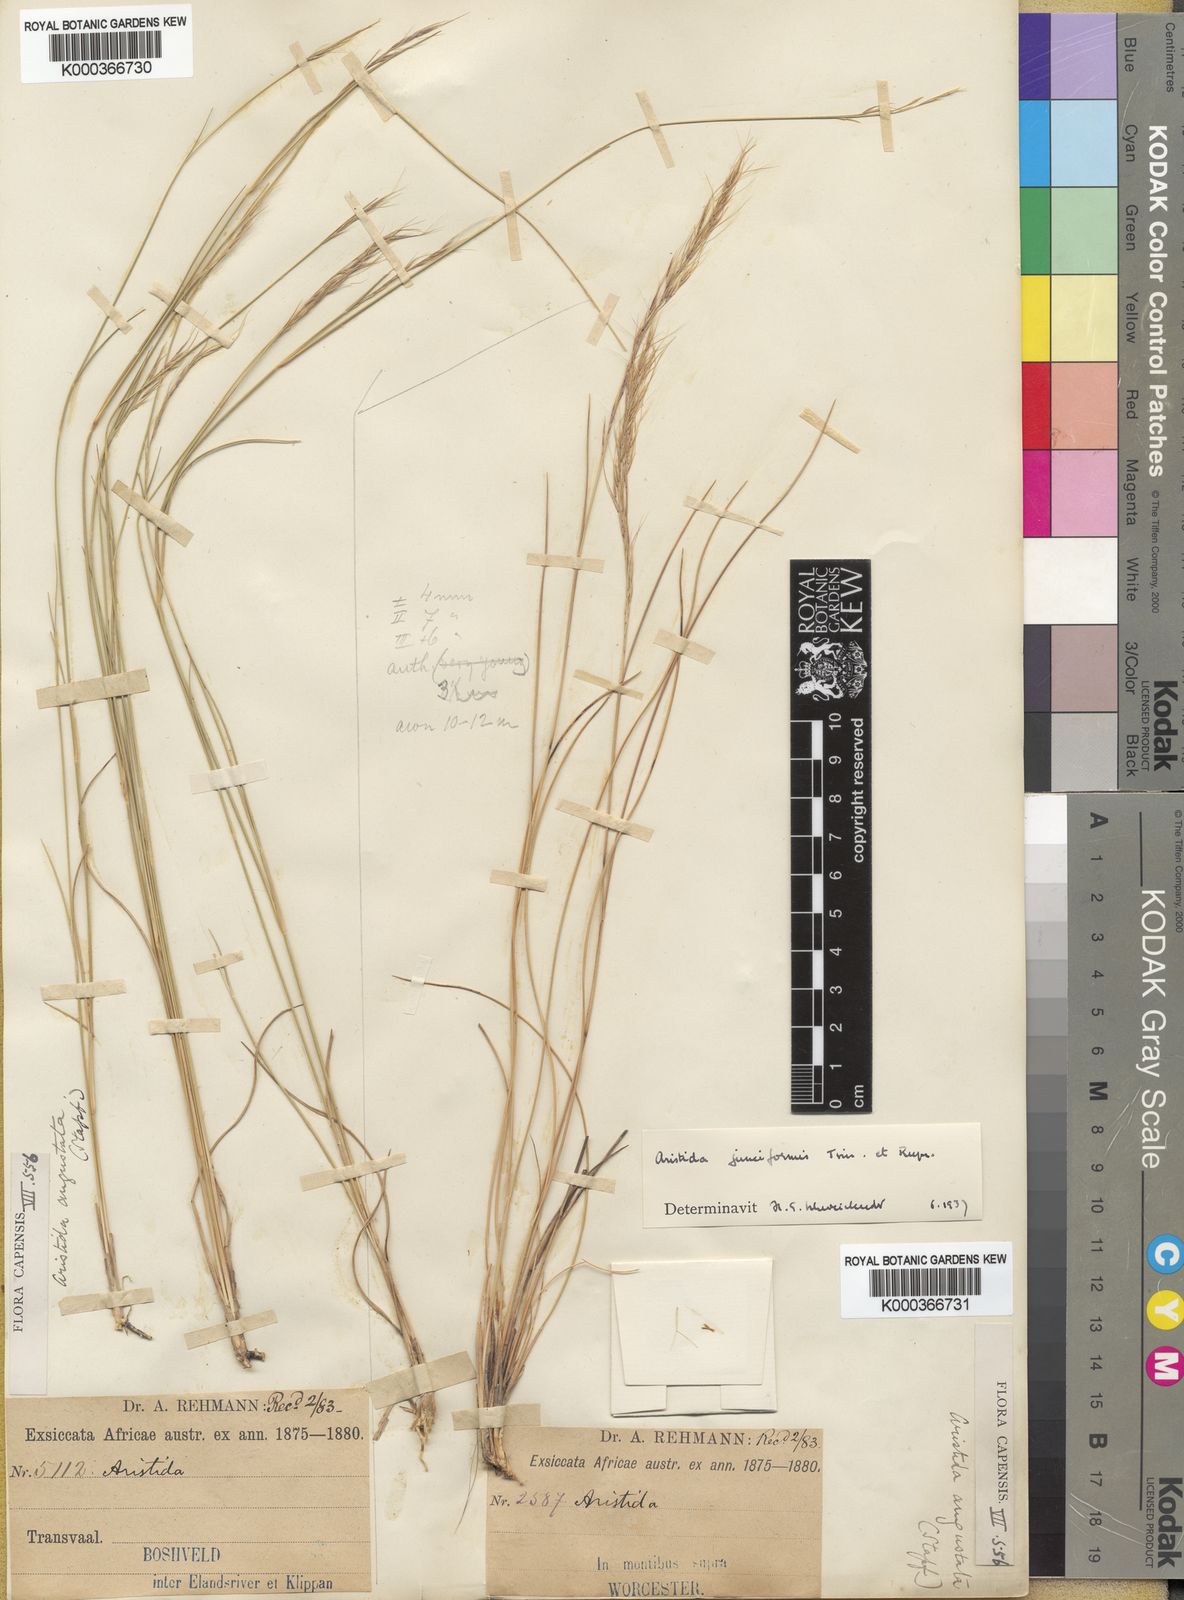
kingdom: Plantae
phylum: Tracheophyta
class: Liliopsida
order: Poales
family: Poaceae
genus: Aristida
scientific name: Aristida junciformis
